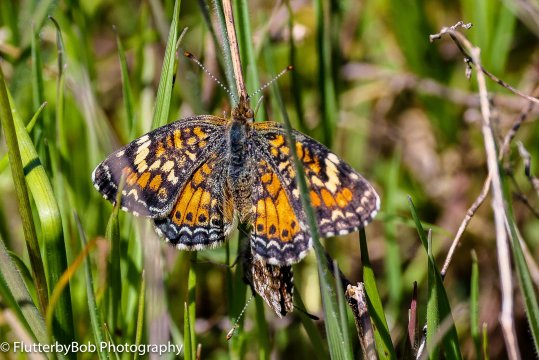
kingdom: Animalia
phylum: Arthropoda
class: Insecta
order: Lepidoptera
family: Nymphalidae
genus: Phyciodes
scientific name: Phyciodes phaon
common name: Phaon Crescent
